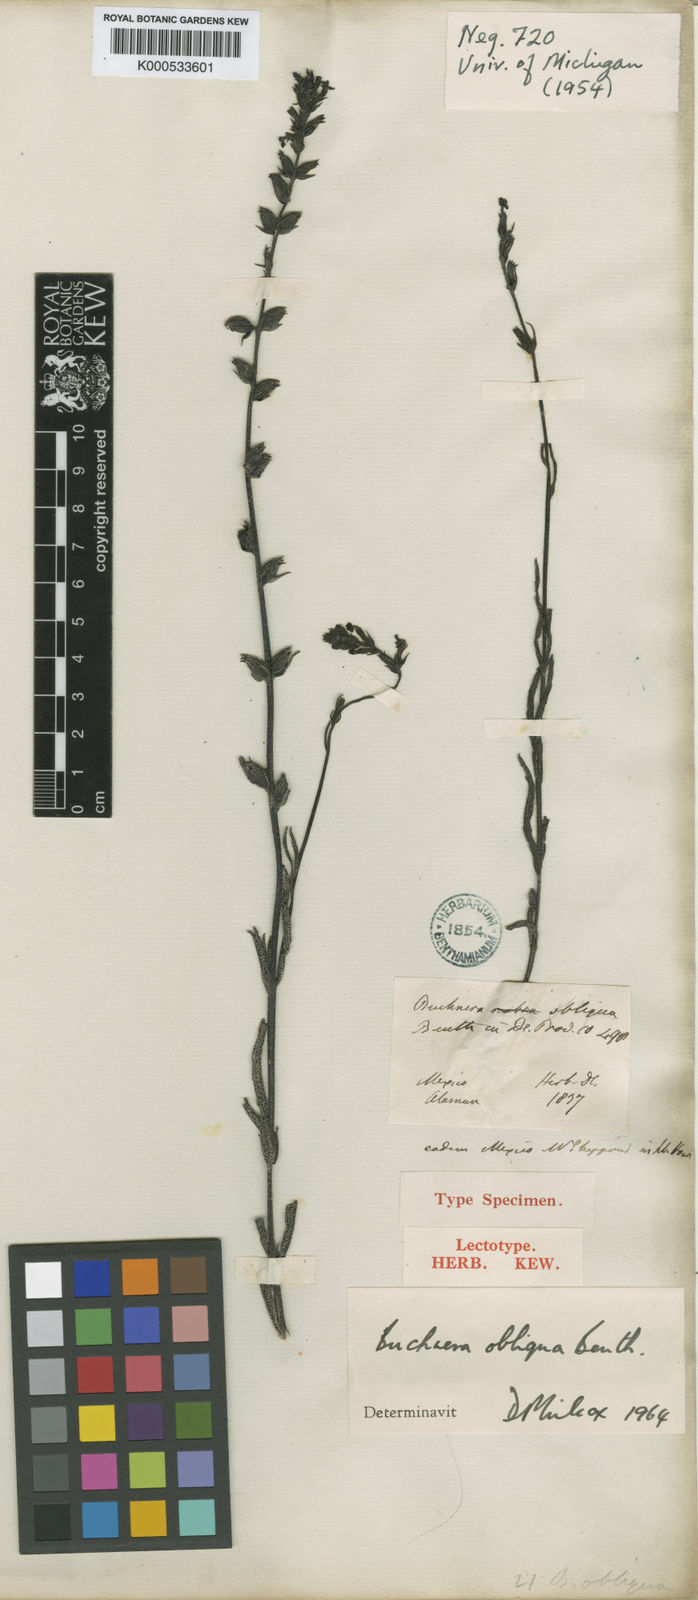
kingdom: Plantae
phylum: Tracheophyta
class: Magnoliopsida
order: Lamiales
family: Orobanchaceae
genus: Buchnera
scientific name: Buchnera obliqua
